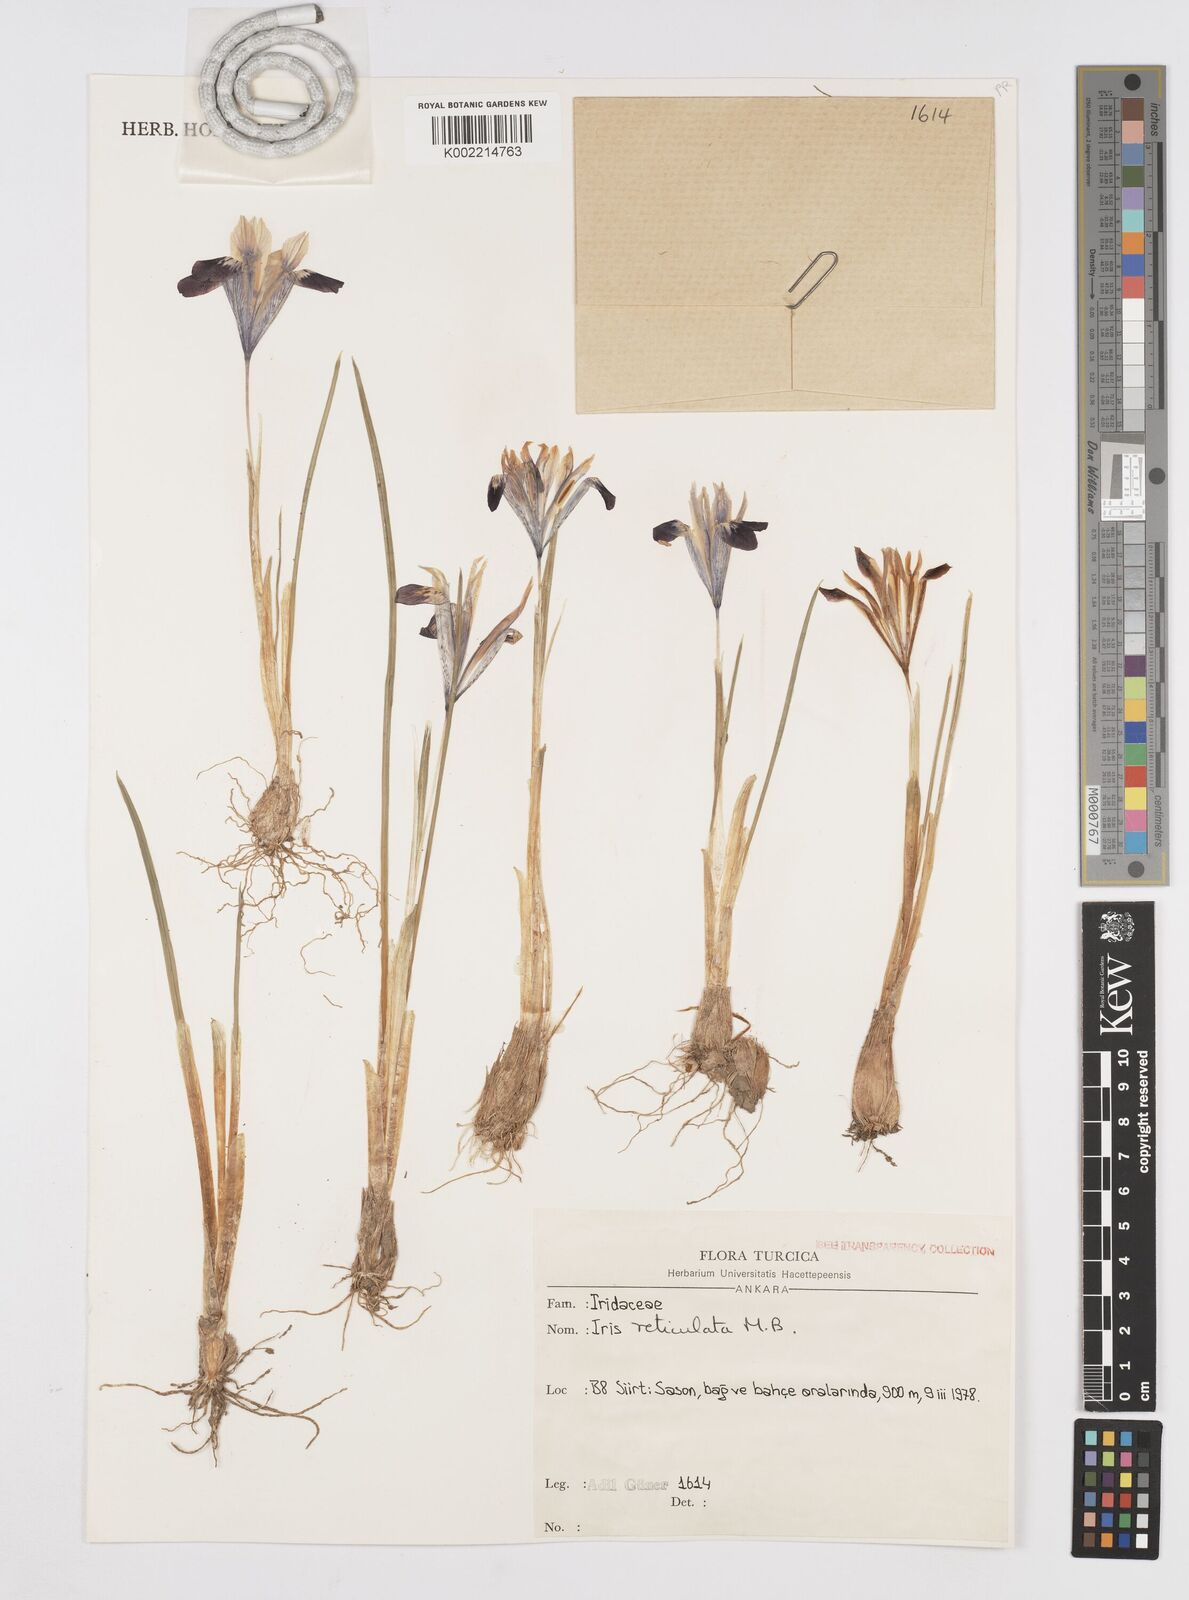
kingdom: Plantae
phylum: Tracheophyta
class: Liliopsida
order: Asparagales
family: Iridaceae
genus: Iris
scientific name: Iris reticulata
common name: Netted iris
